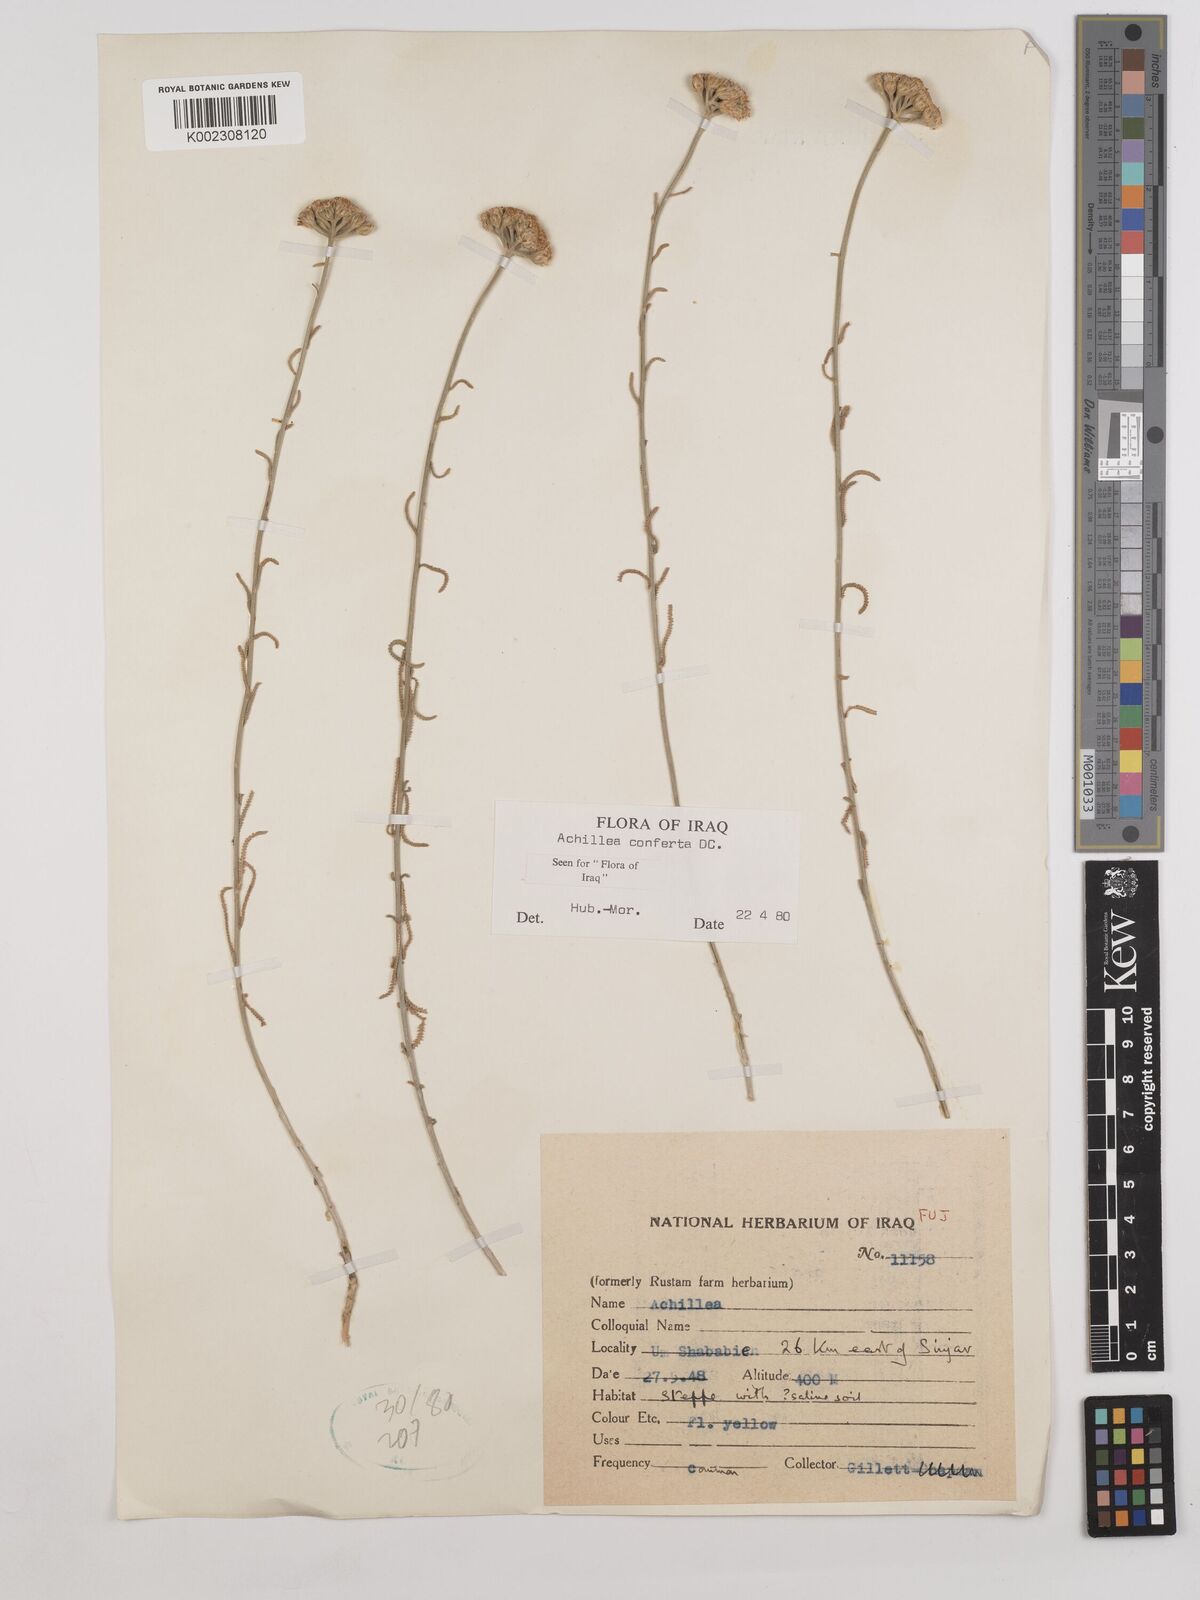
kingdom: Plantae
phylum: Tracheophyta
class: Magnoliopsida
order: Asterales
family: Asteraceae
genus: Achillea
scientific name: Achillea conferta
